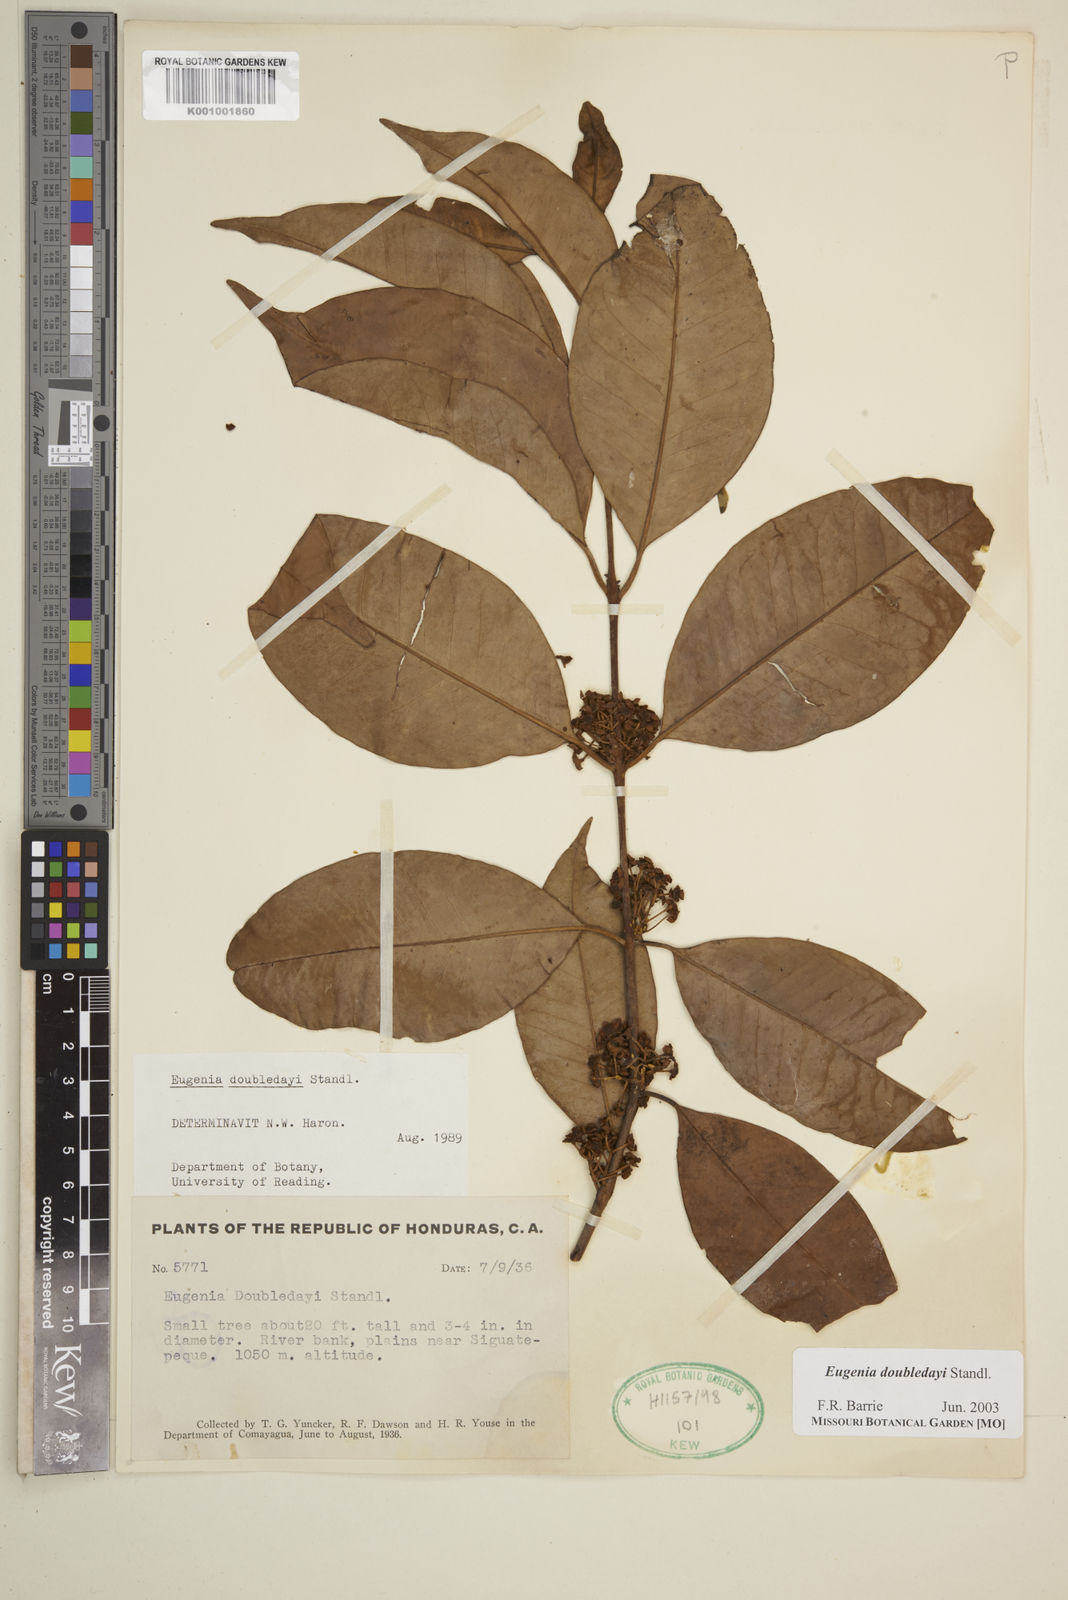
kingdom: Plantae
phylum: Tracheophyta
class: Magnoliopsida
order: Myrtales
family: Myrtaceae
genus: Eugenia
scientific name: Eugenia doubledayi
